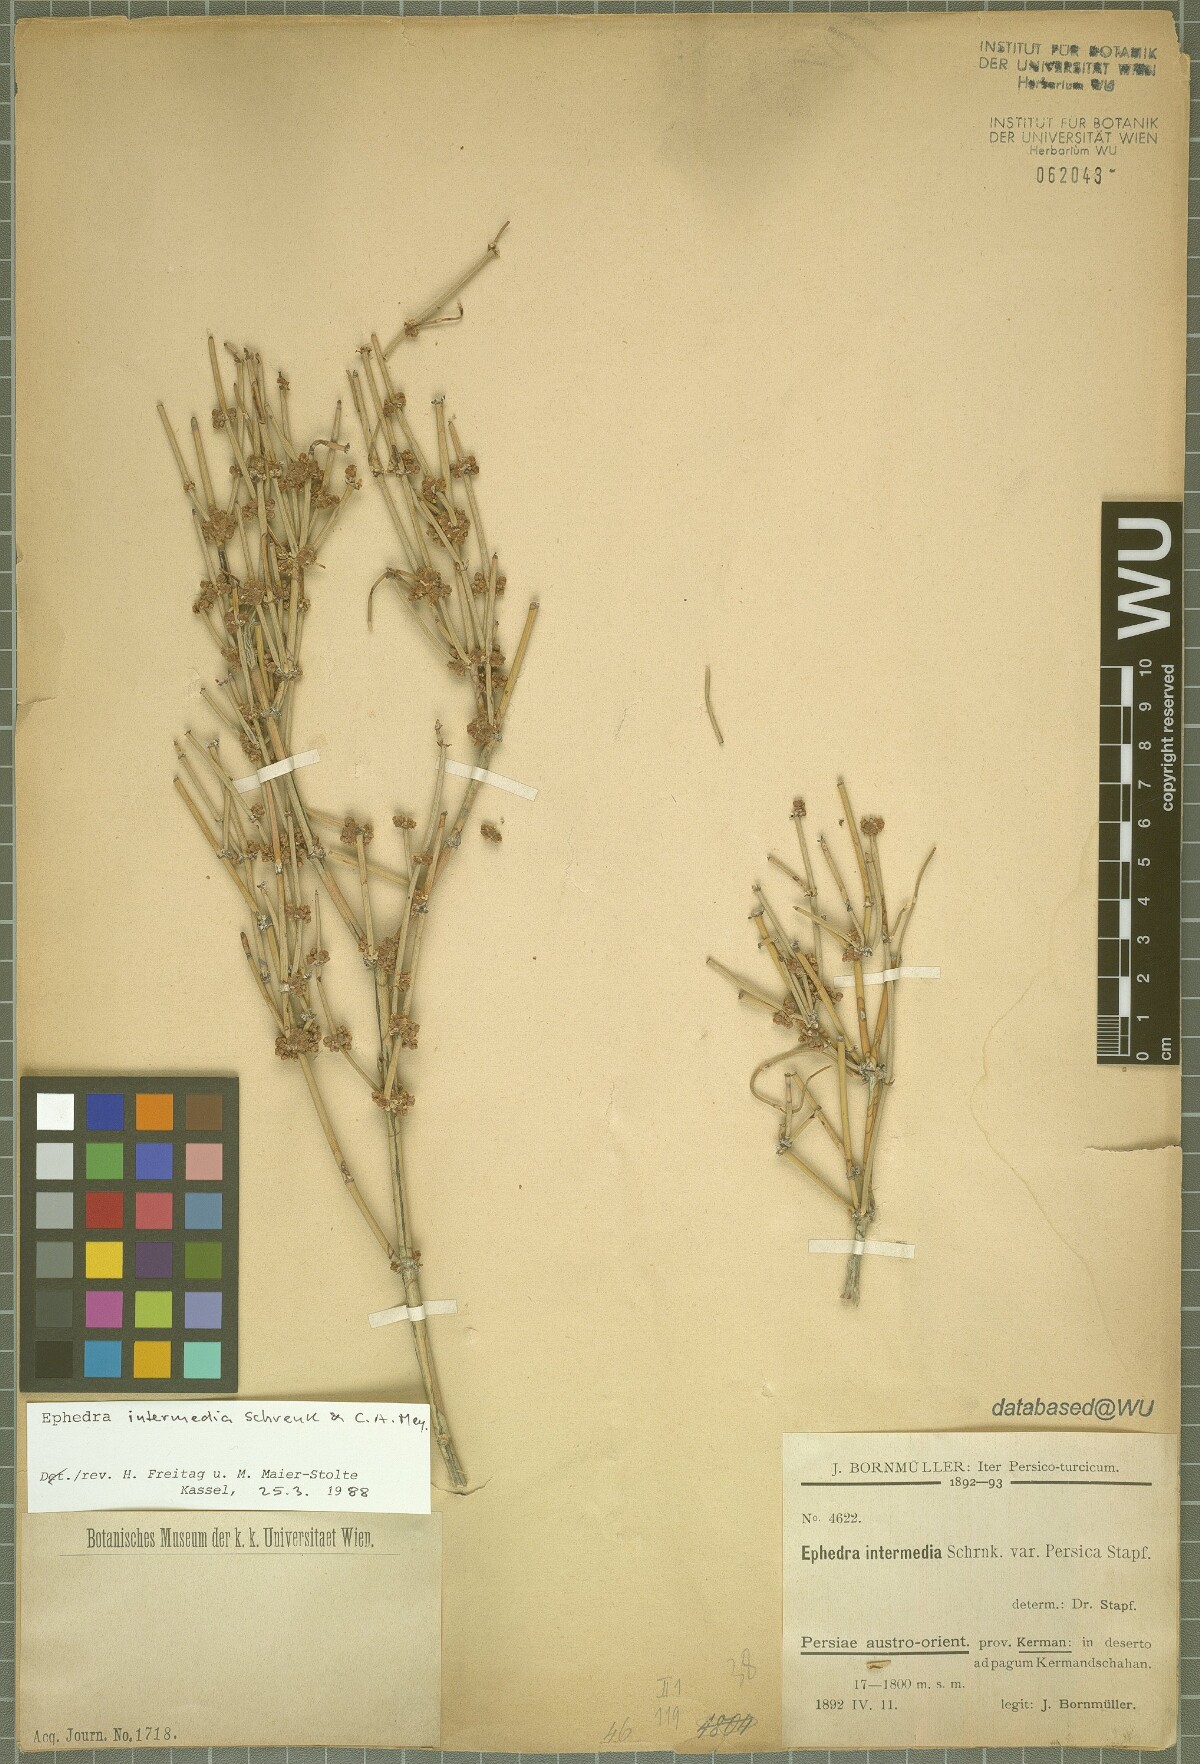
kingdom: Plantae
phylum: Tracheophyta
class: Gnetopsida
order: Ephedrales
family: Ephedraceae
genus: Ephedra
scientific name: Ephedra intermedia
